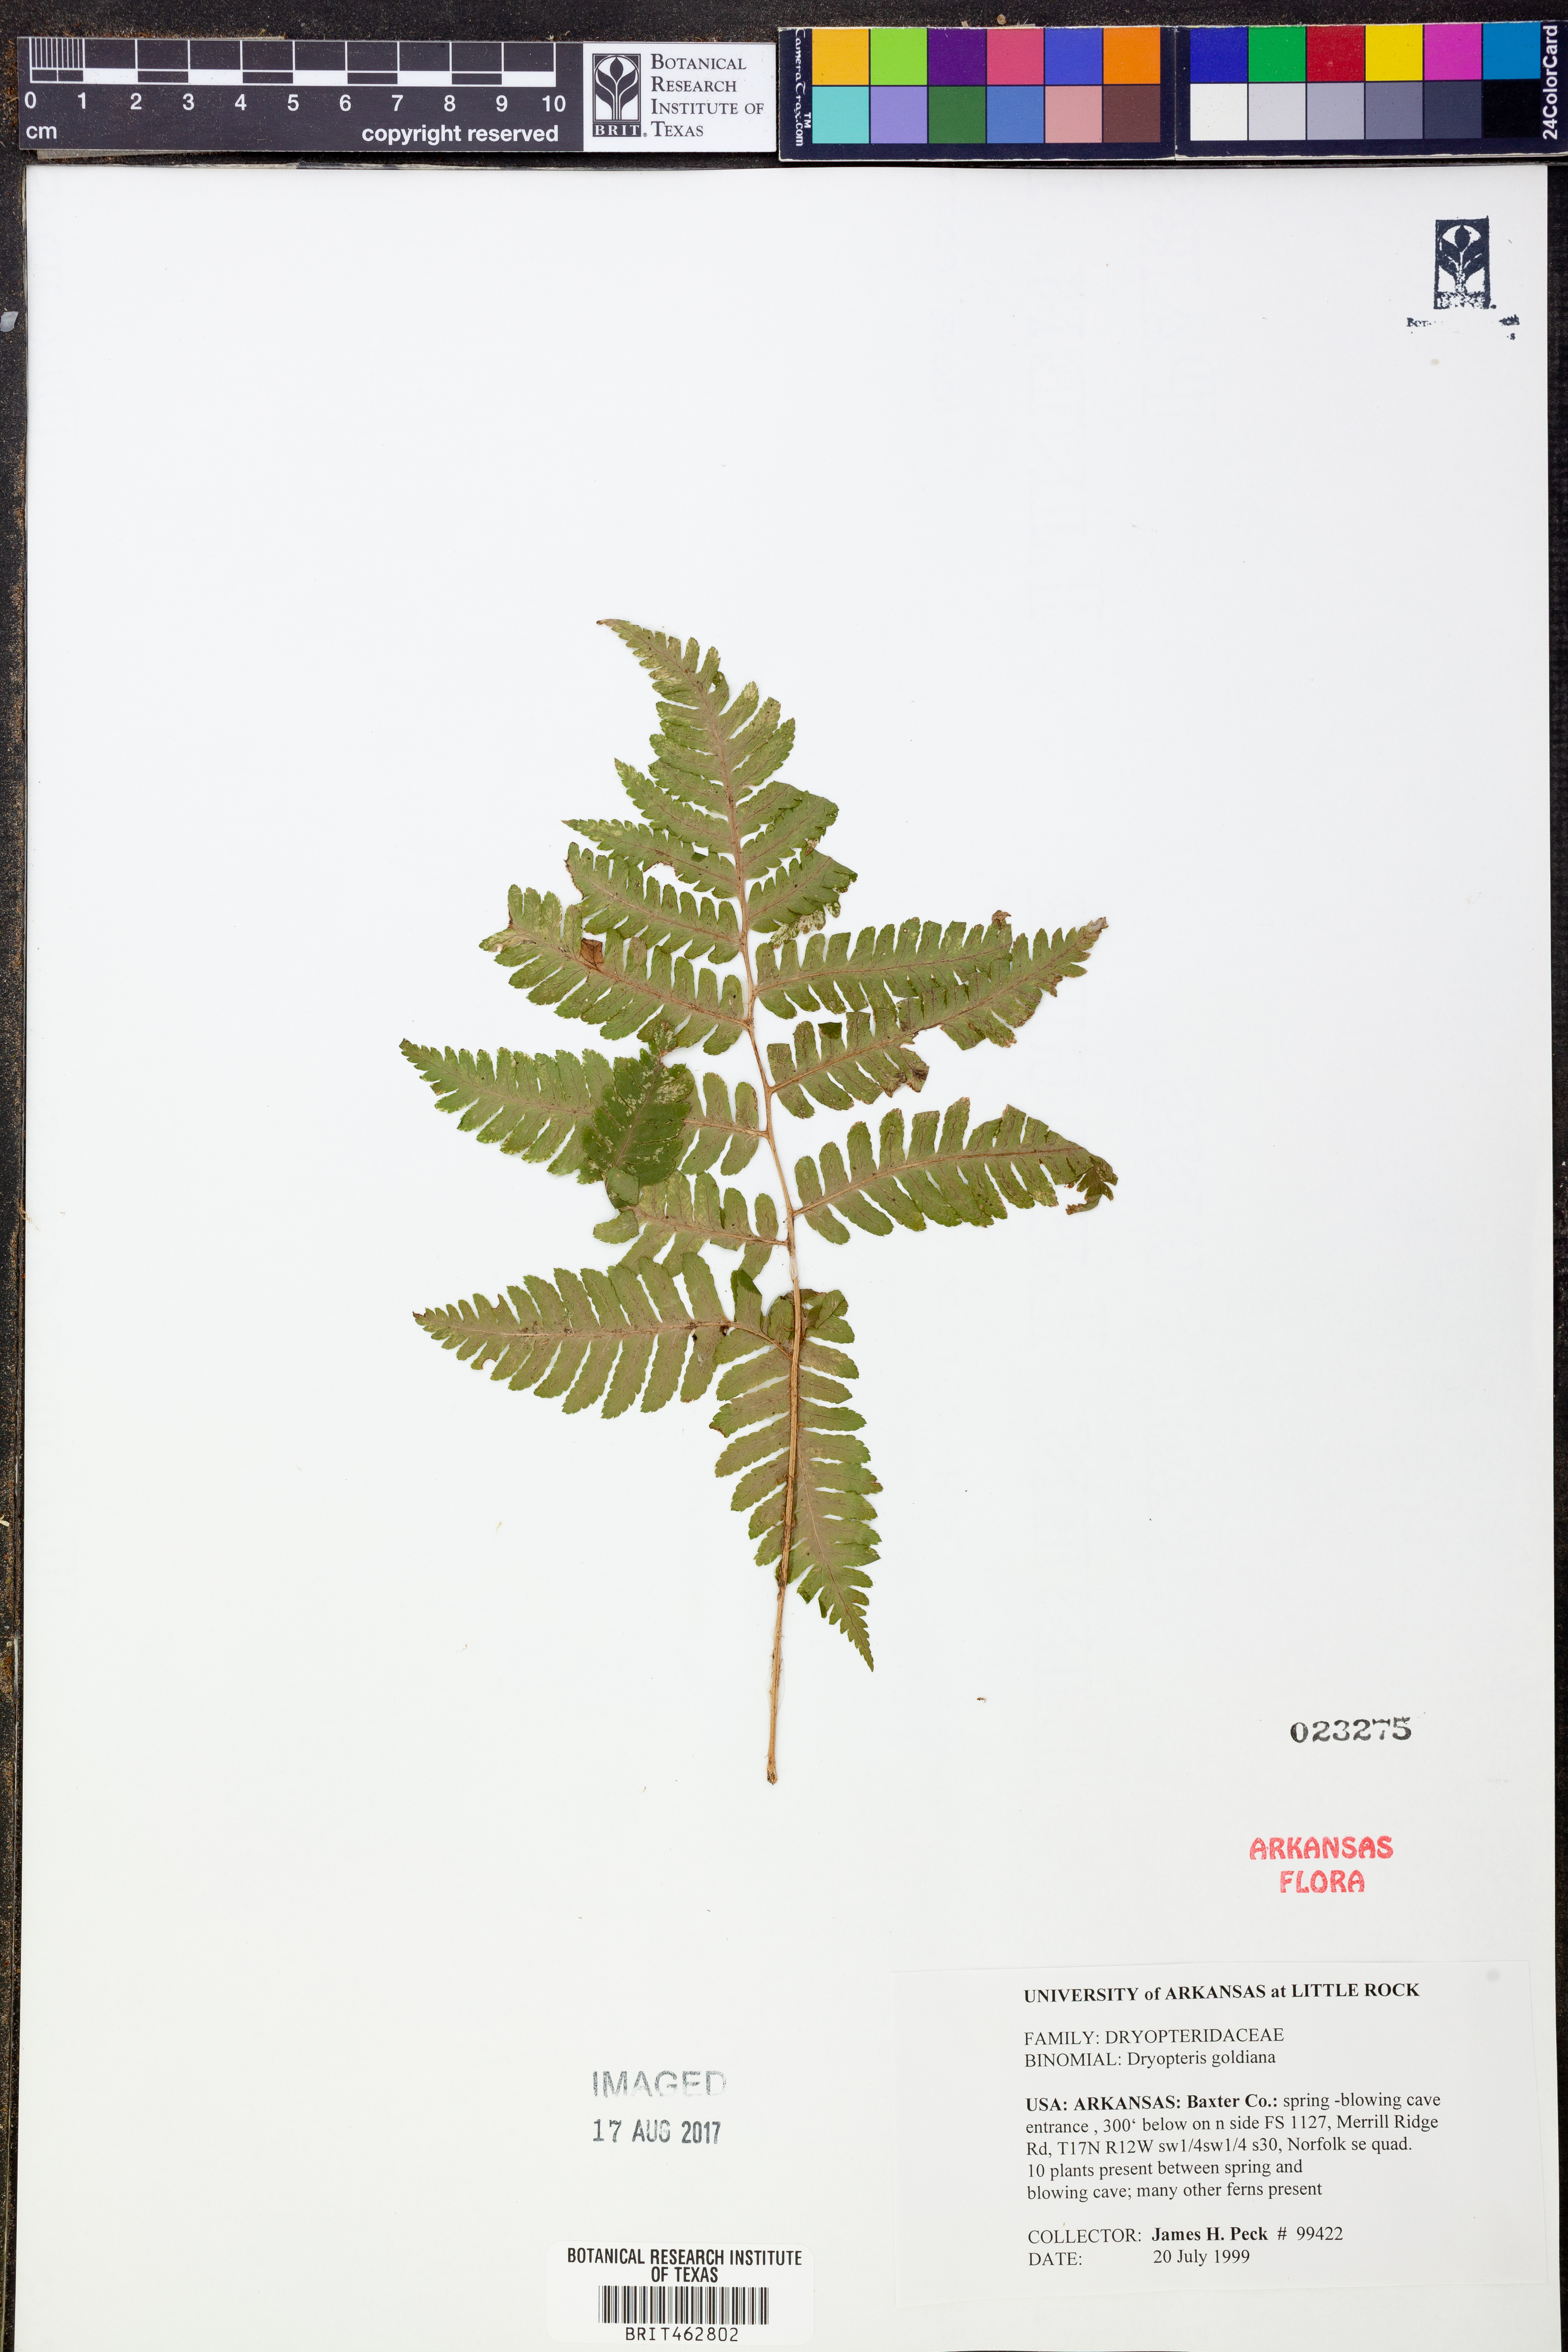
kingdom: Plantae
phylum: Tracheophyta
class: Polypodiopsida
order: Polypodiales
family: Dryopteridaceae
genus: Dryopteris
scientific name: Dryopteris goeldiana
